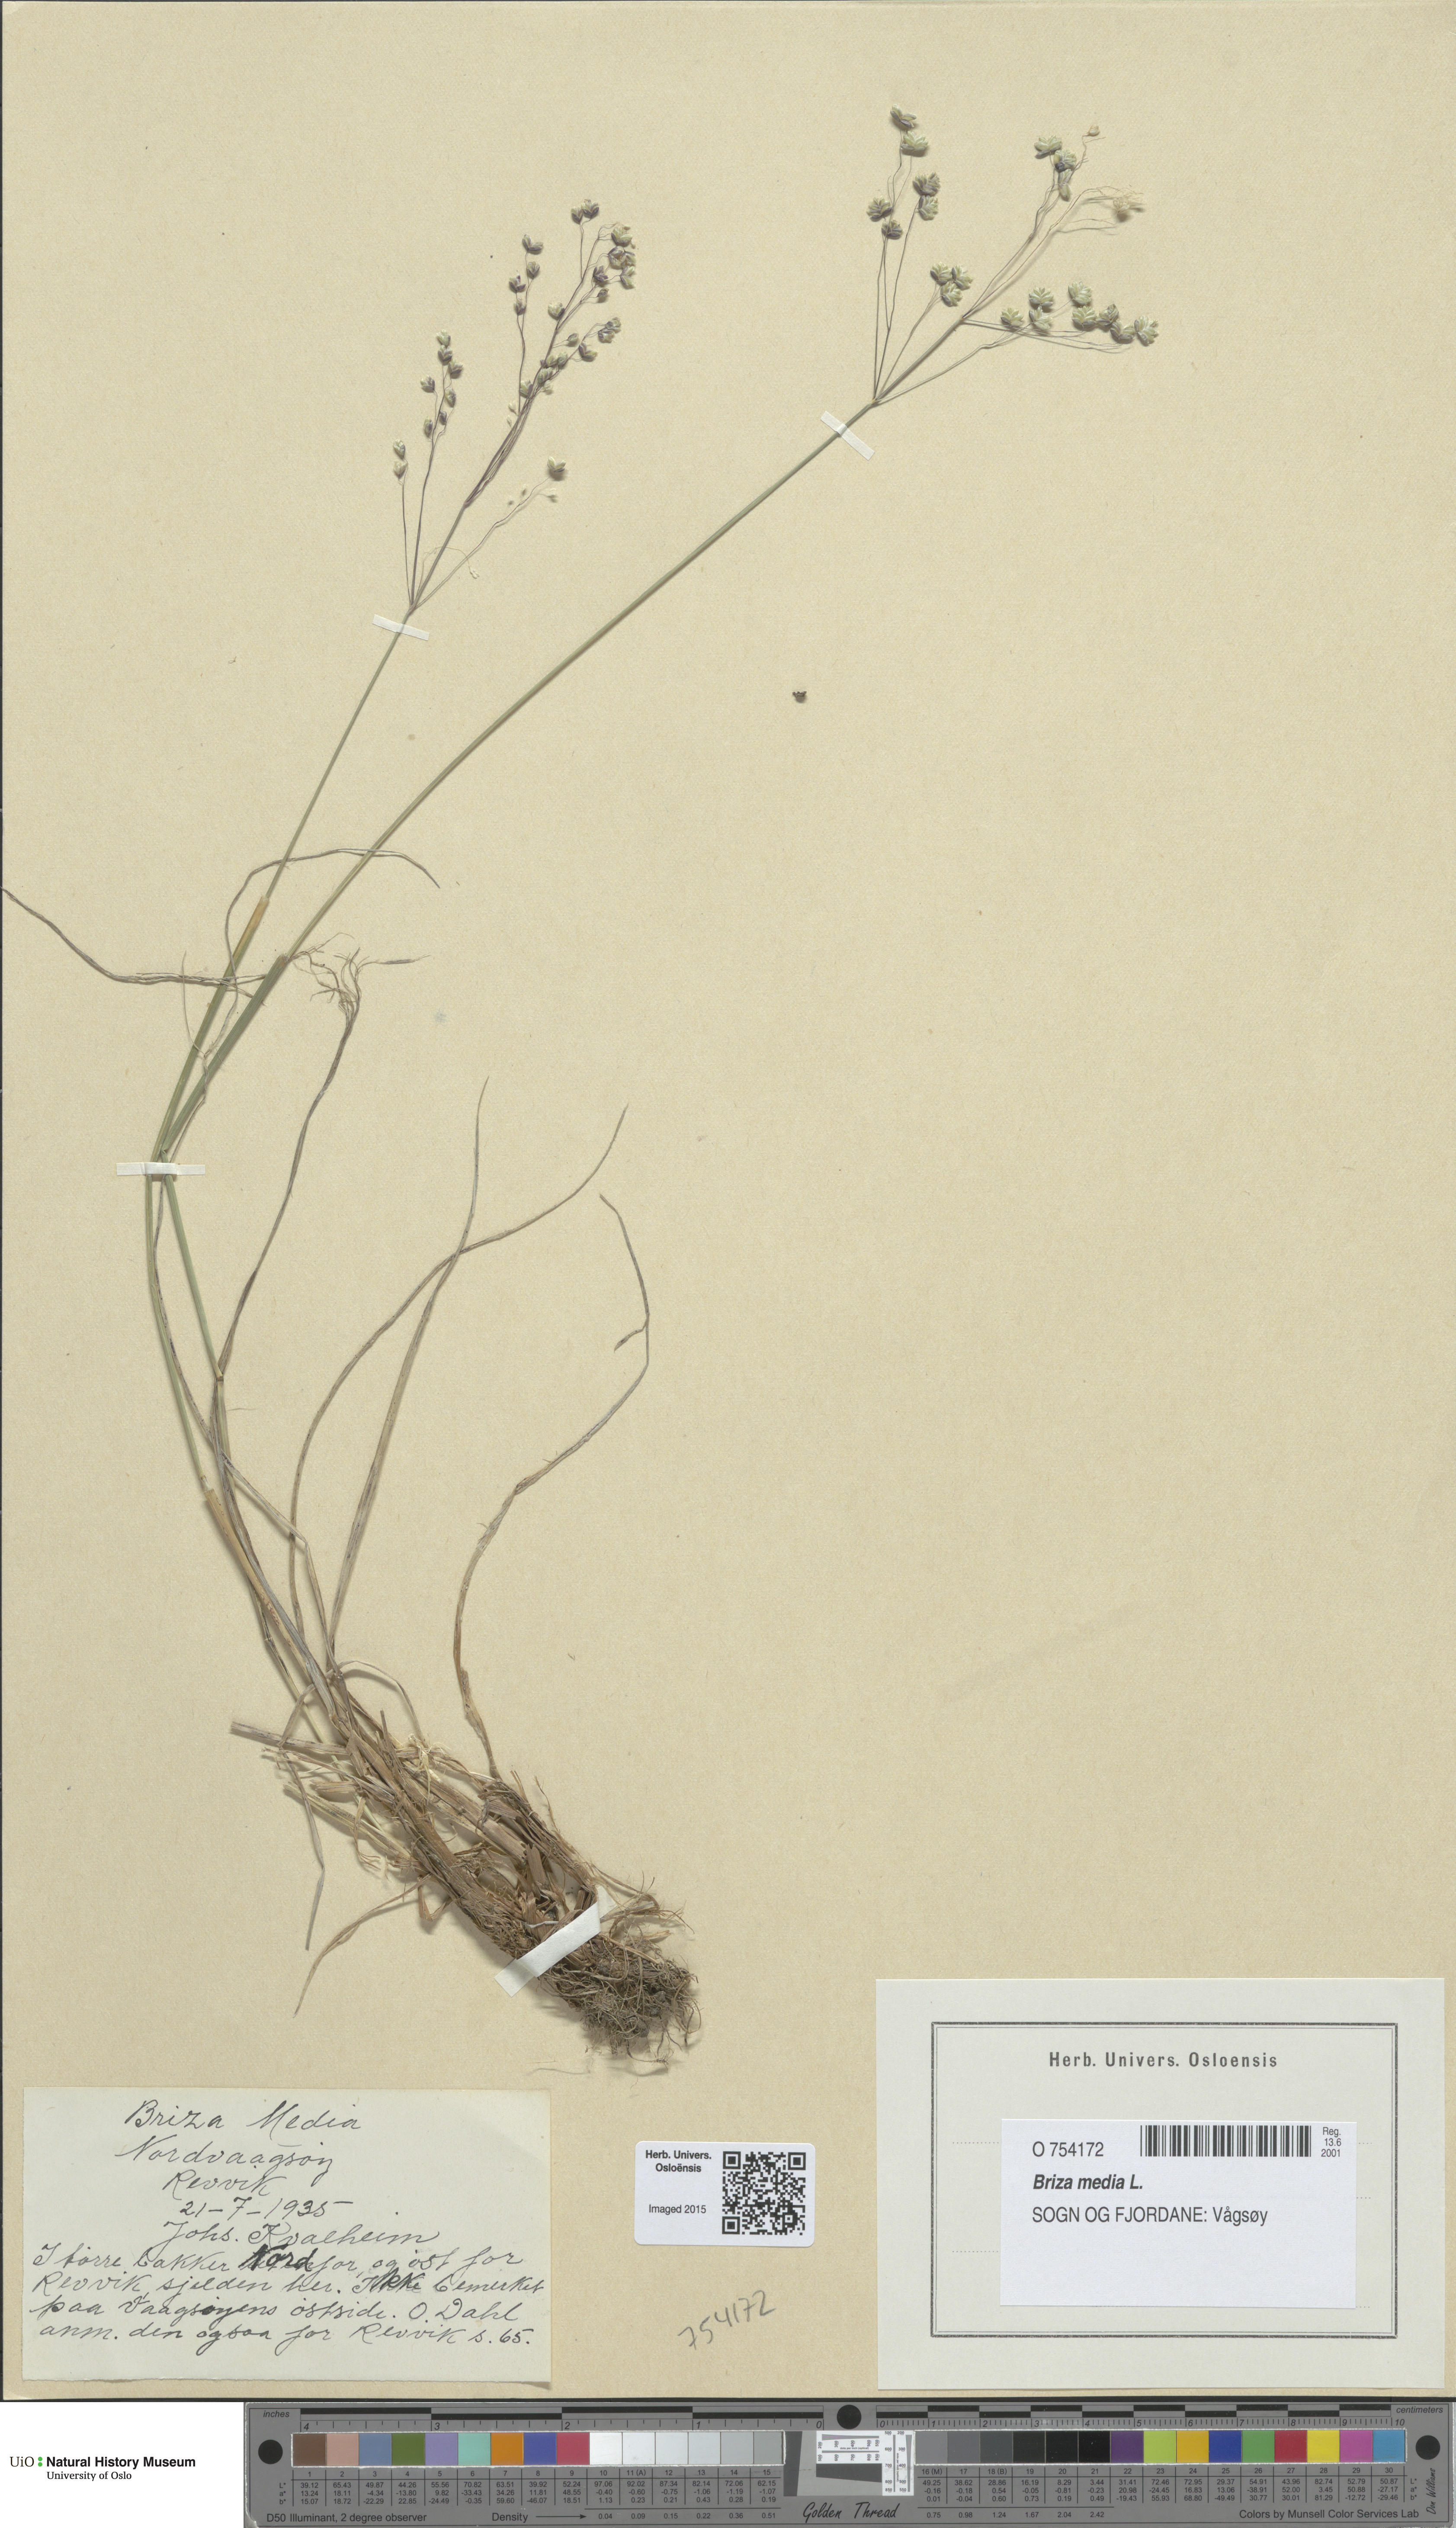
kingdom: Plantae
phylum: Tracheophyta
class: Liliopsida
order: Poales
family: Poaceae
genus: Briza
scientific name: Briza media
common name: Quaking grass
